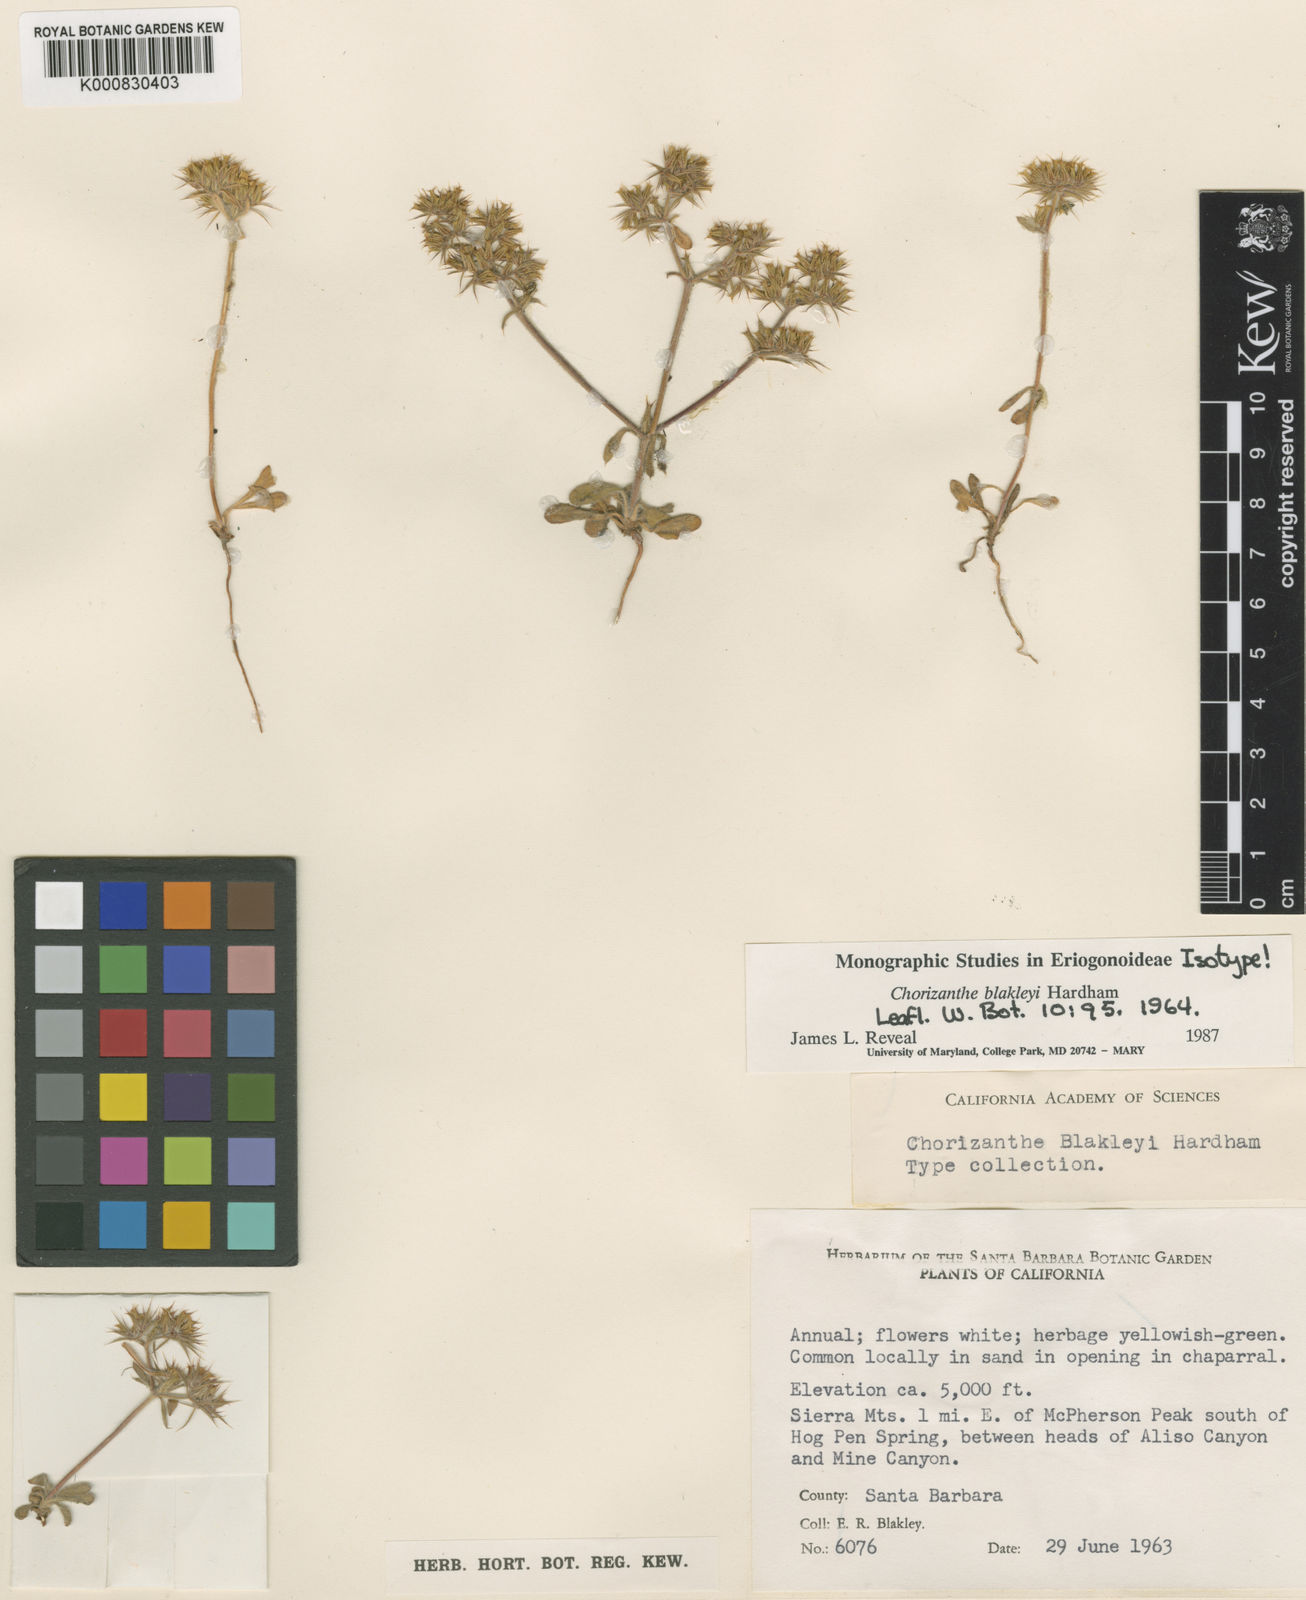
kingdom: Plantae
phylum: Tracheophyta
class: Magnoliopsida
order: Caryophyllales
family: Polygonaceae
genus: Chorizanthe
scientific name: Chorizanthe blakleyi
